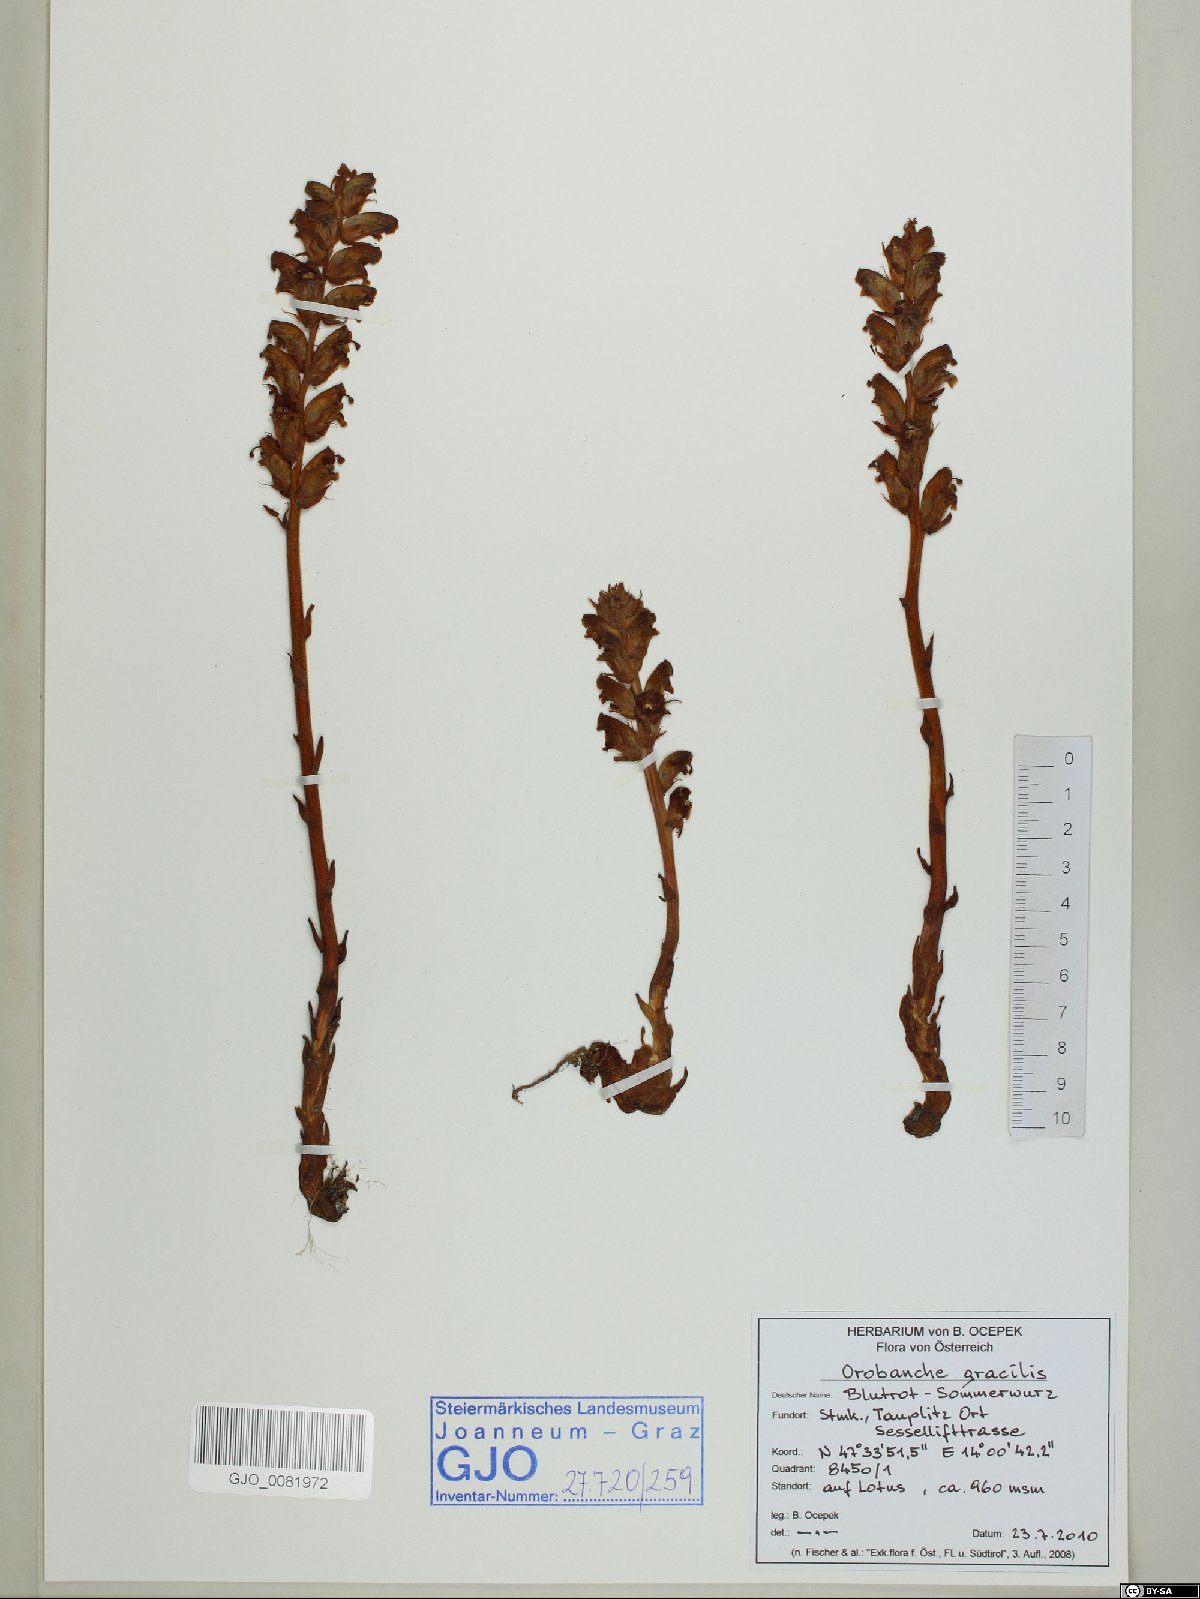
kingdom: Plantae
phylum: Tracheophyta
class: Magnoliopsida
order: Lamiales
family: Orobanchaceae
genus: Orobanche
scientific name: Orobanche gracilis
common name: Slender broomrape
